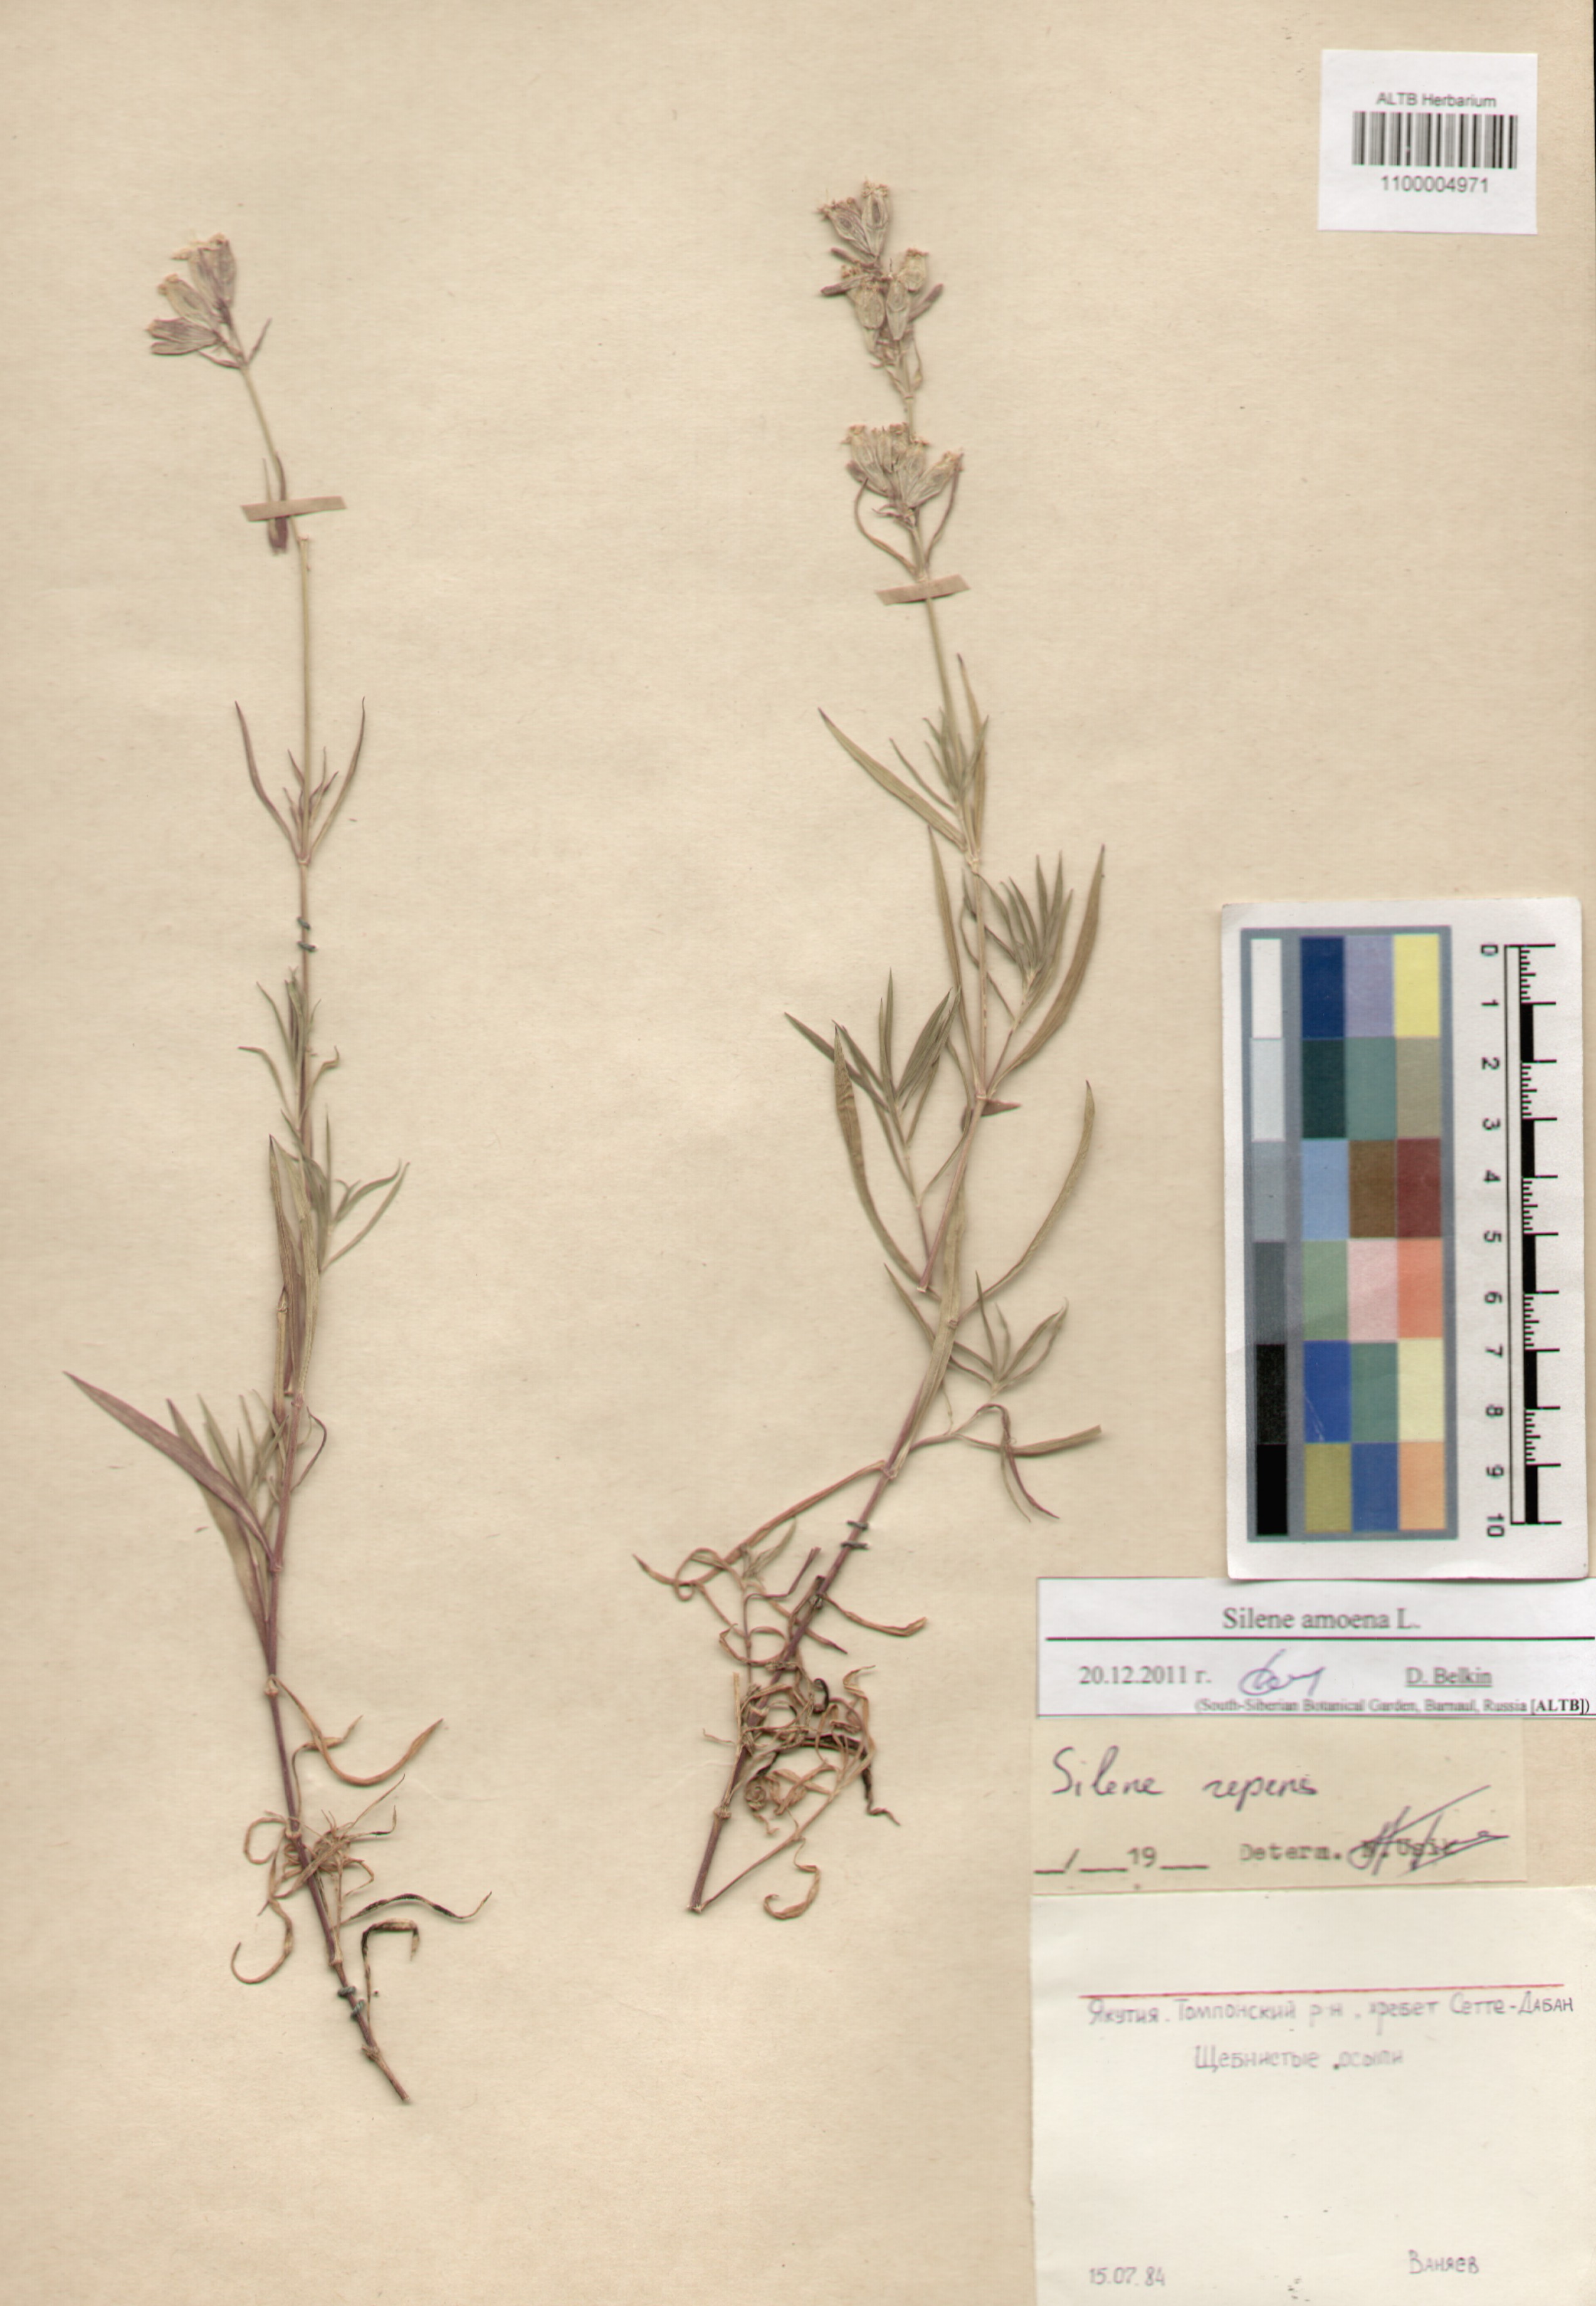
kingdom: Plantae
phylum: Tracheophyta
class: Magnoliopsida
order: Caryophyllales
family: Caryophyllaceae
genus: Silene
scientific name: Silene amoena
